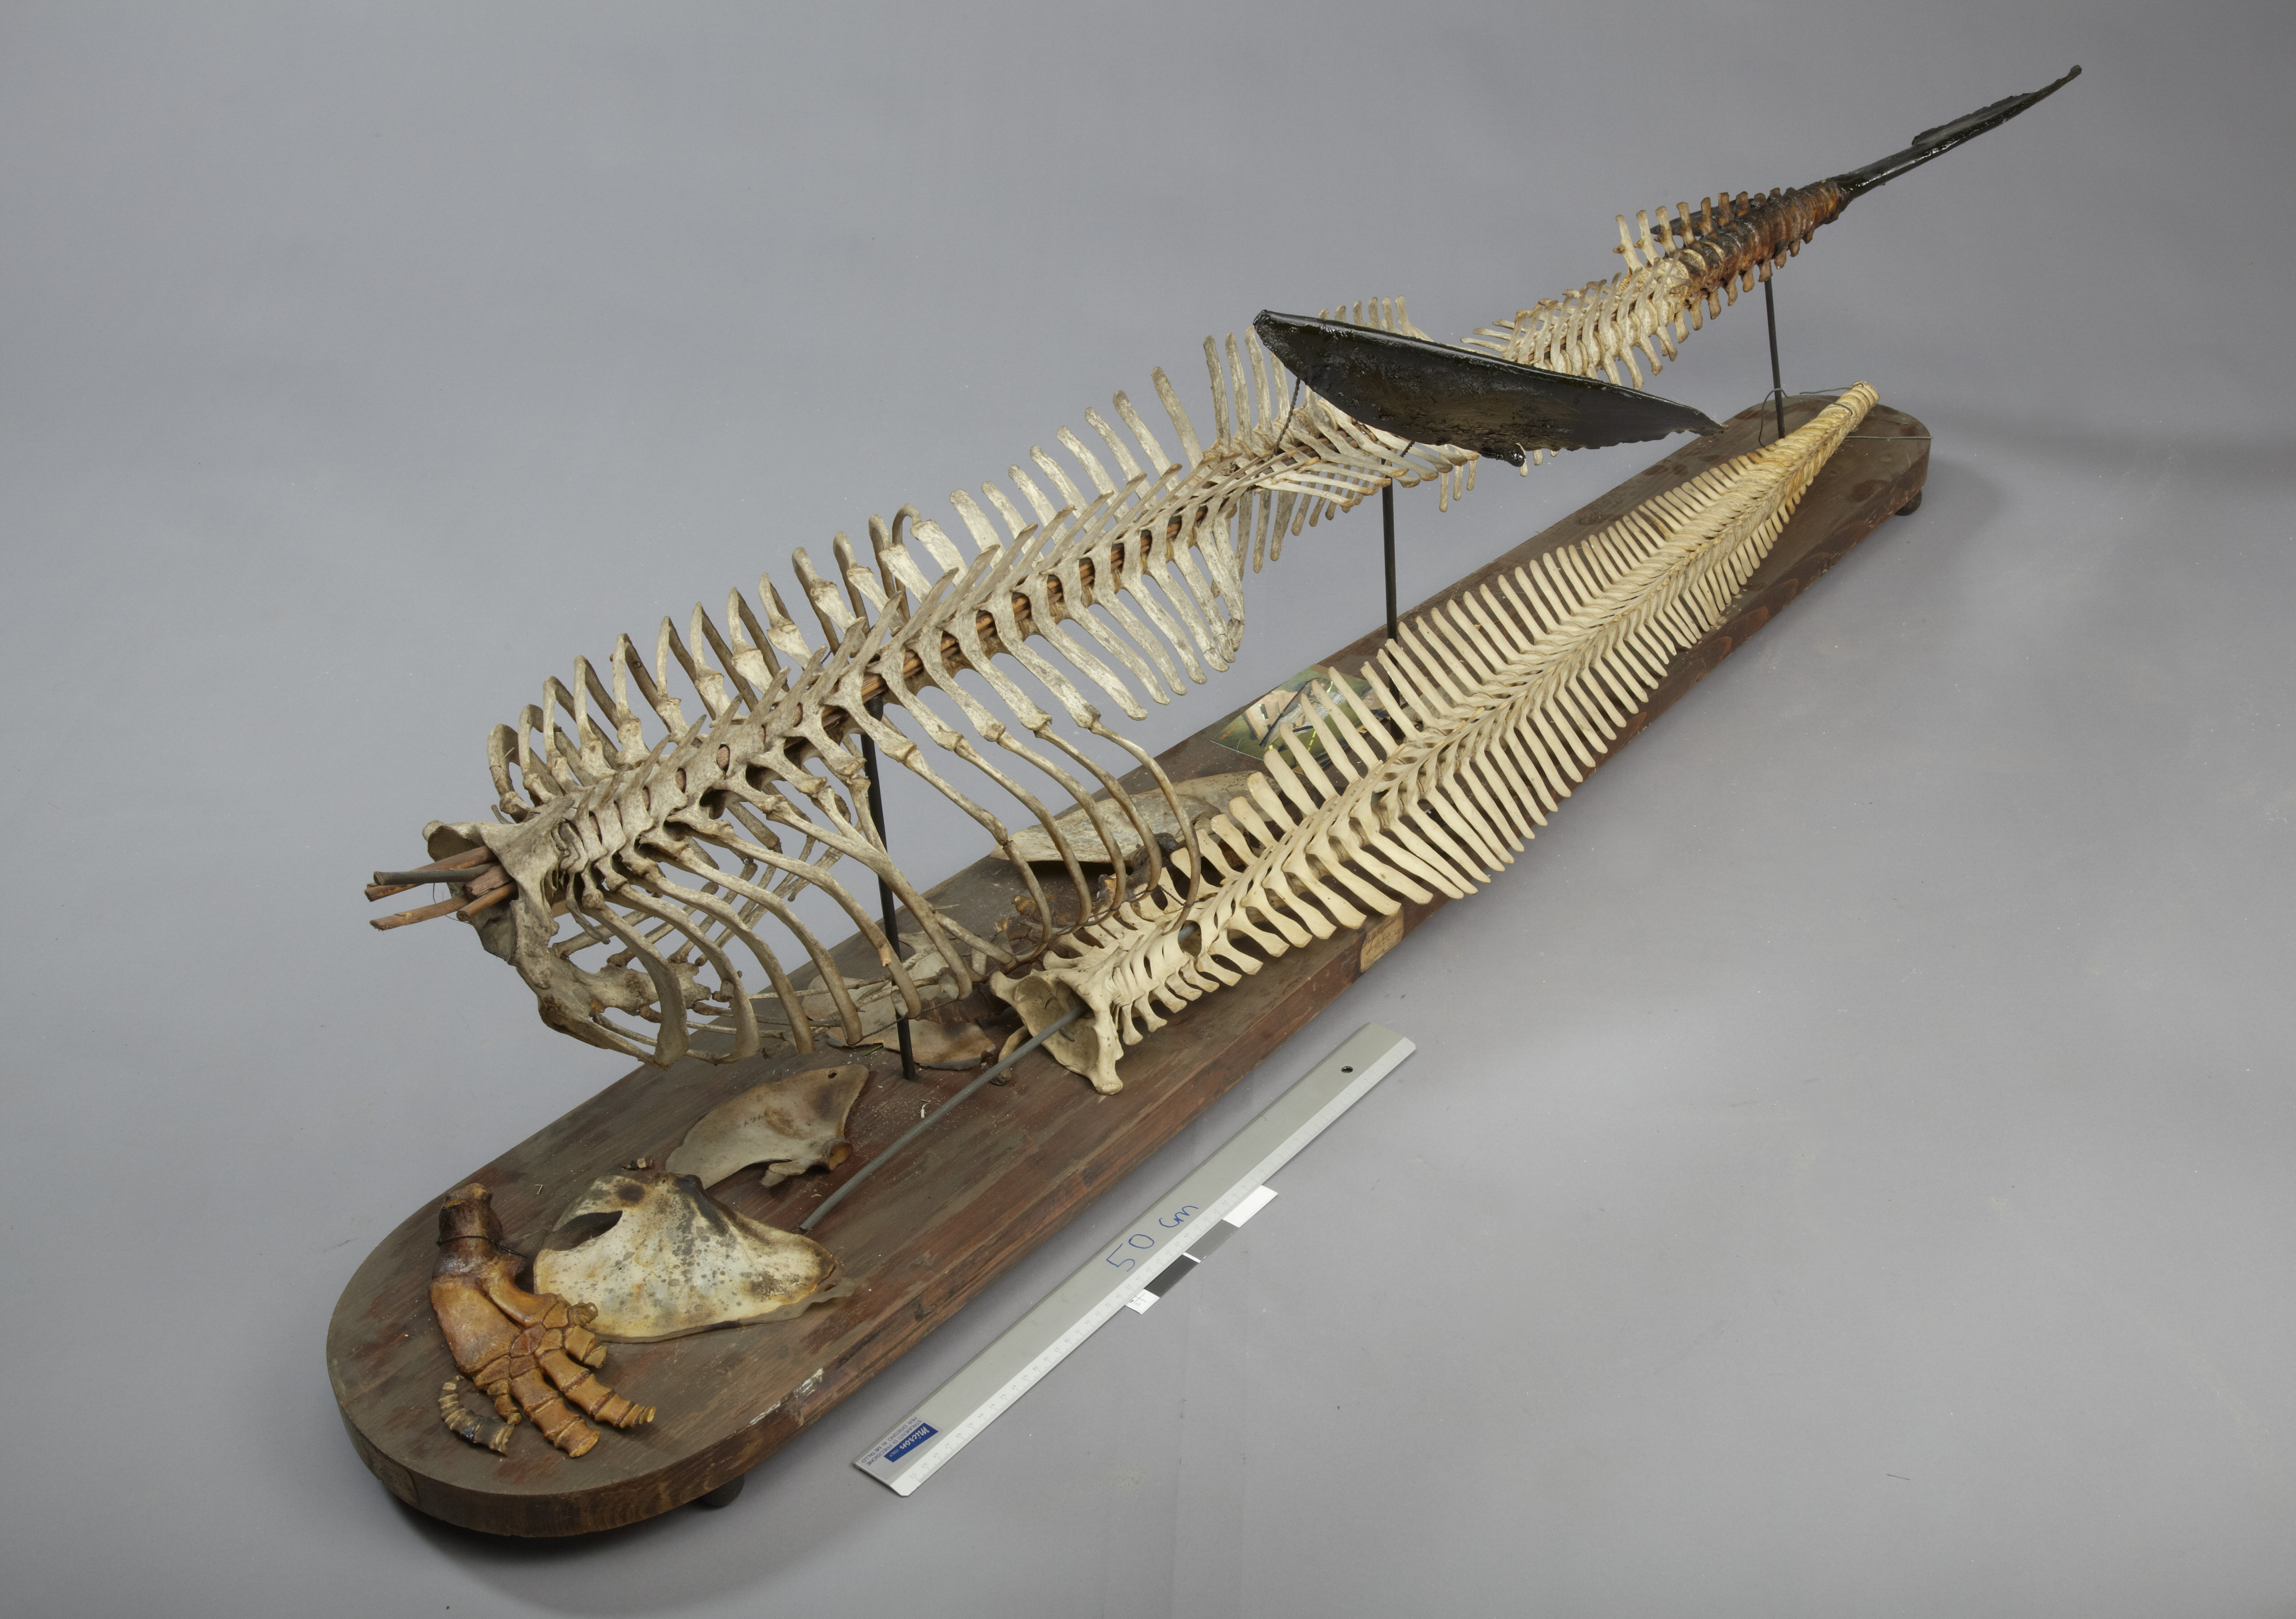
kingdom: Animalia
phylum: Chordata
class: Mammalia
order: Cetacea
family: Delphinidae
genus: Delphinus
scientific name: Delphinus delphis
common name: Common dolphin
